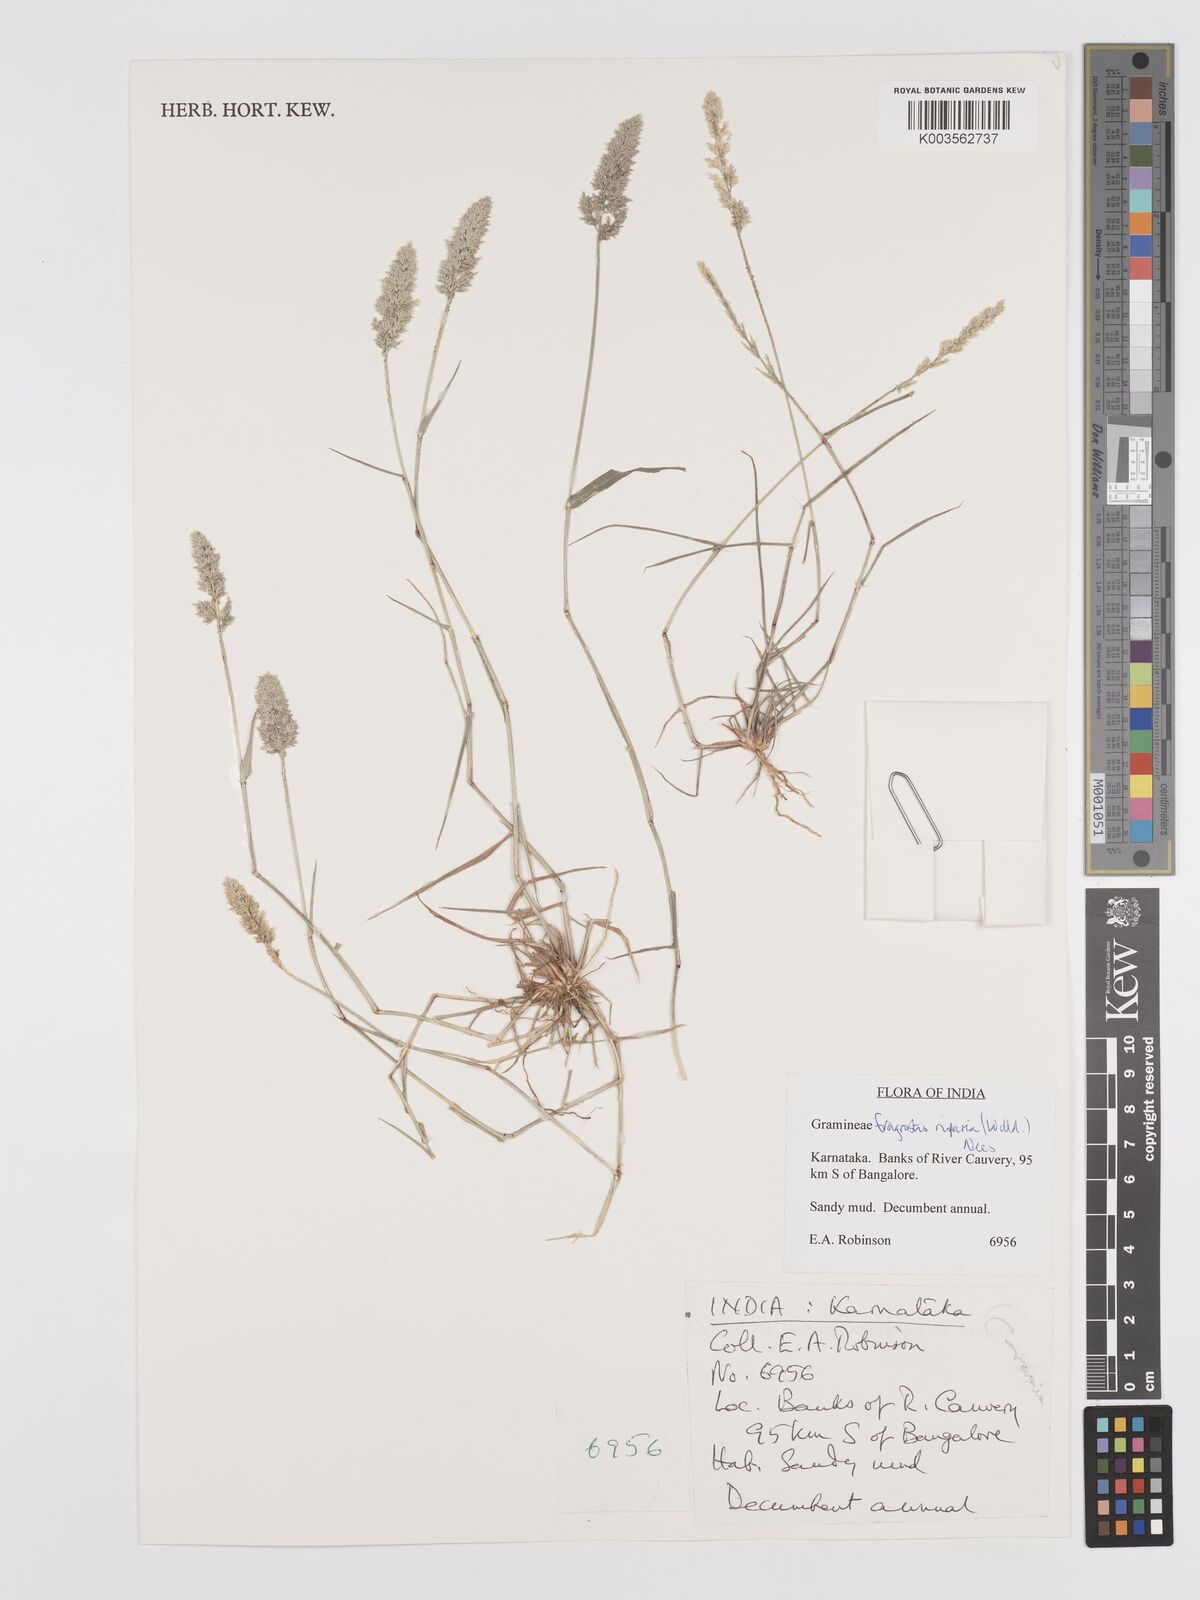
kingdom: Plantae
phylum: Tracheophyta
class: Liliopsida
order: Poales
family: Poaceae
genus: Eragrostis
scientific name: Eragrostis riparia
